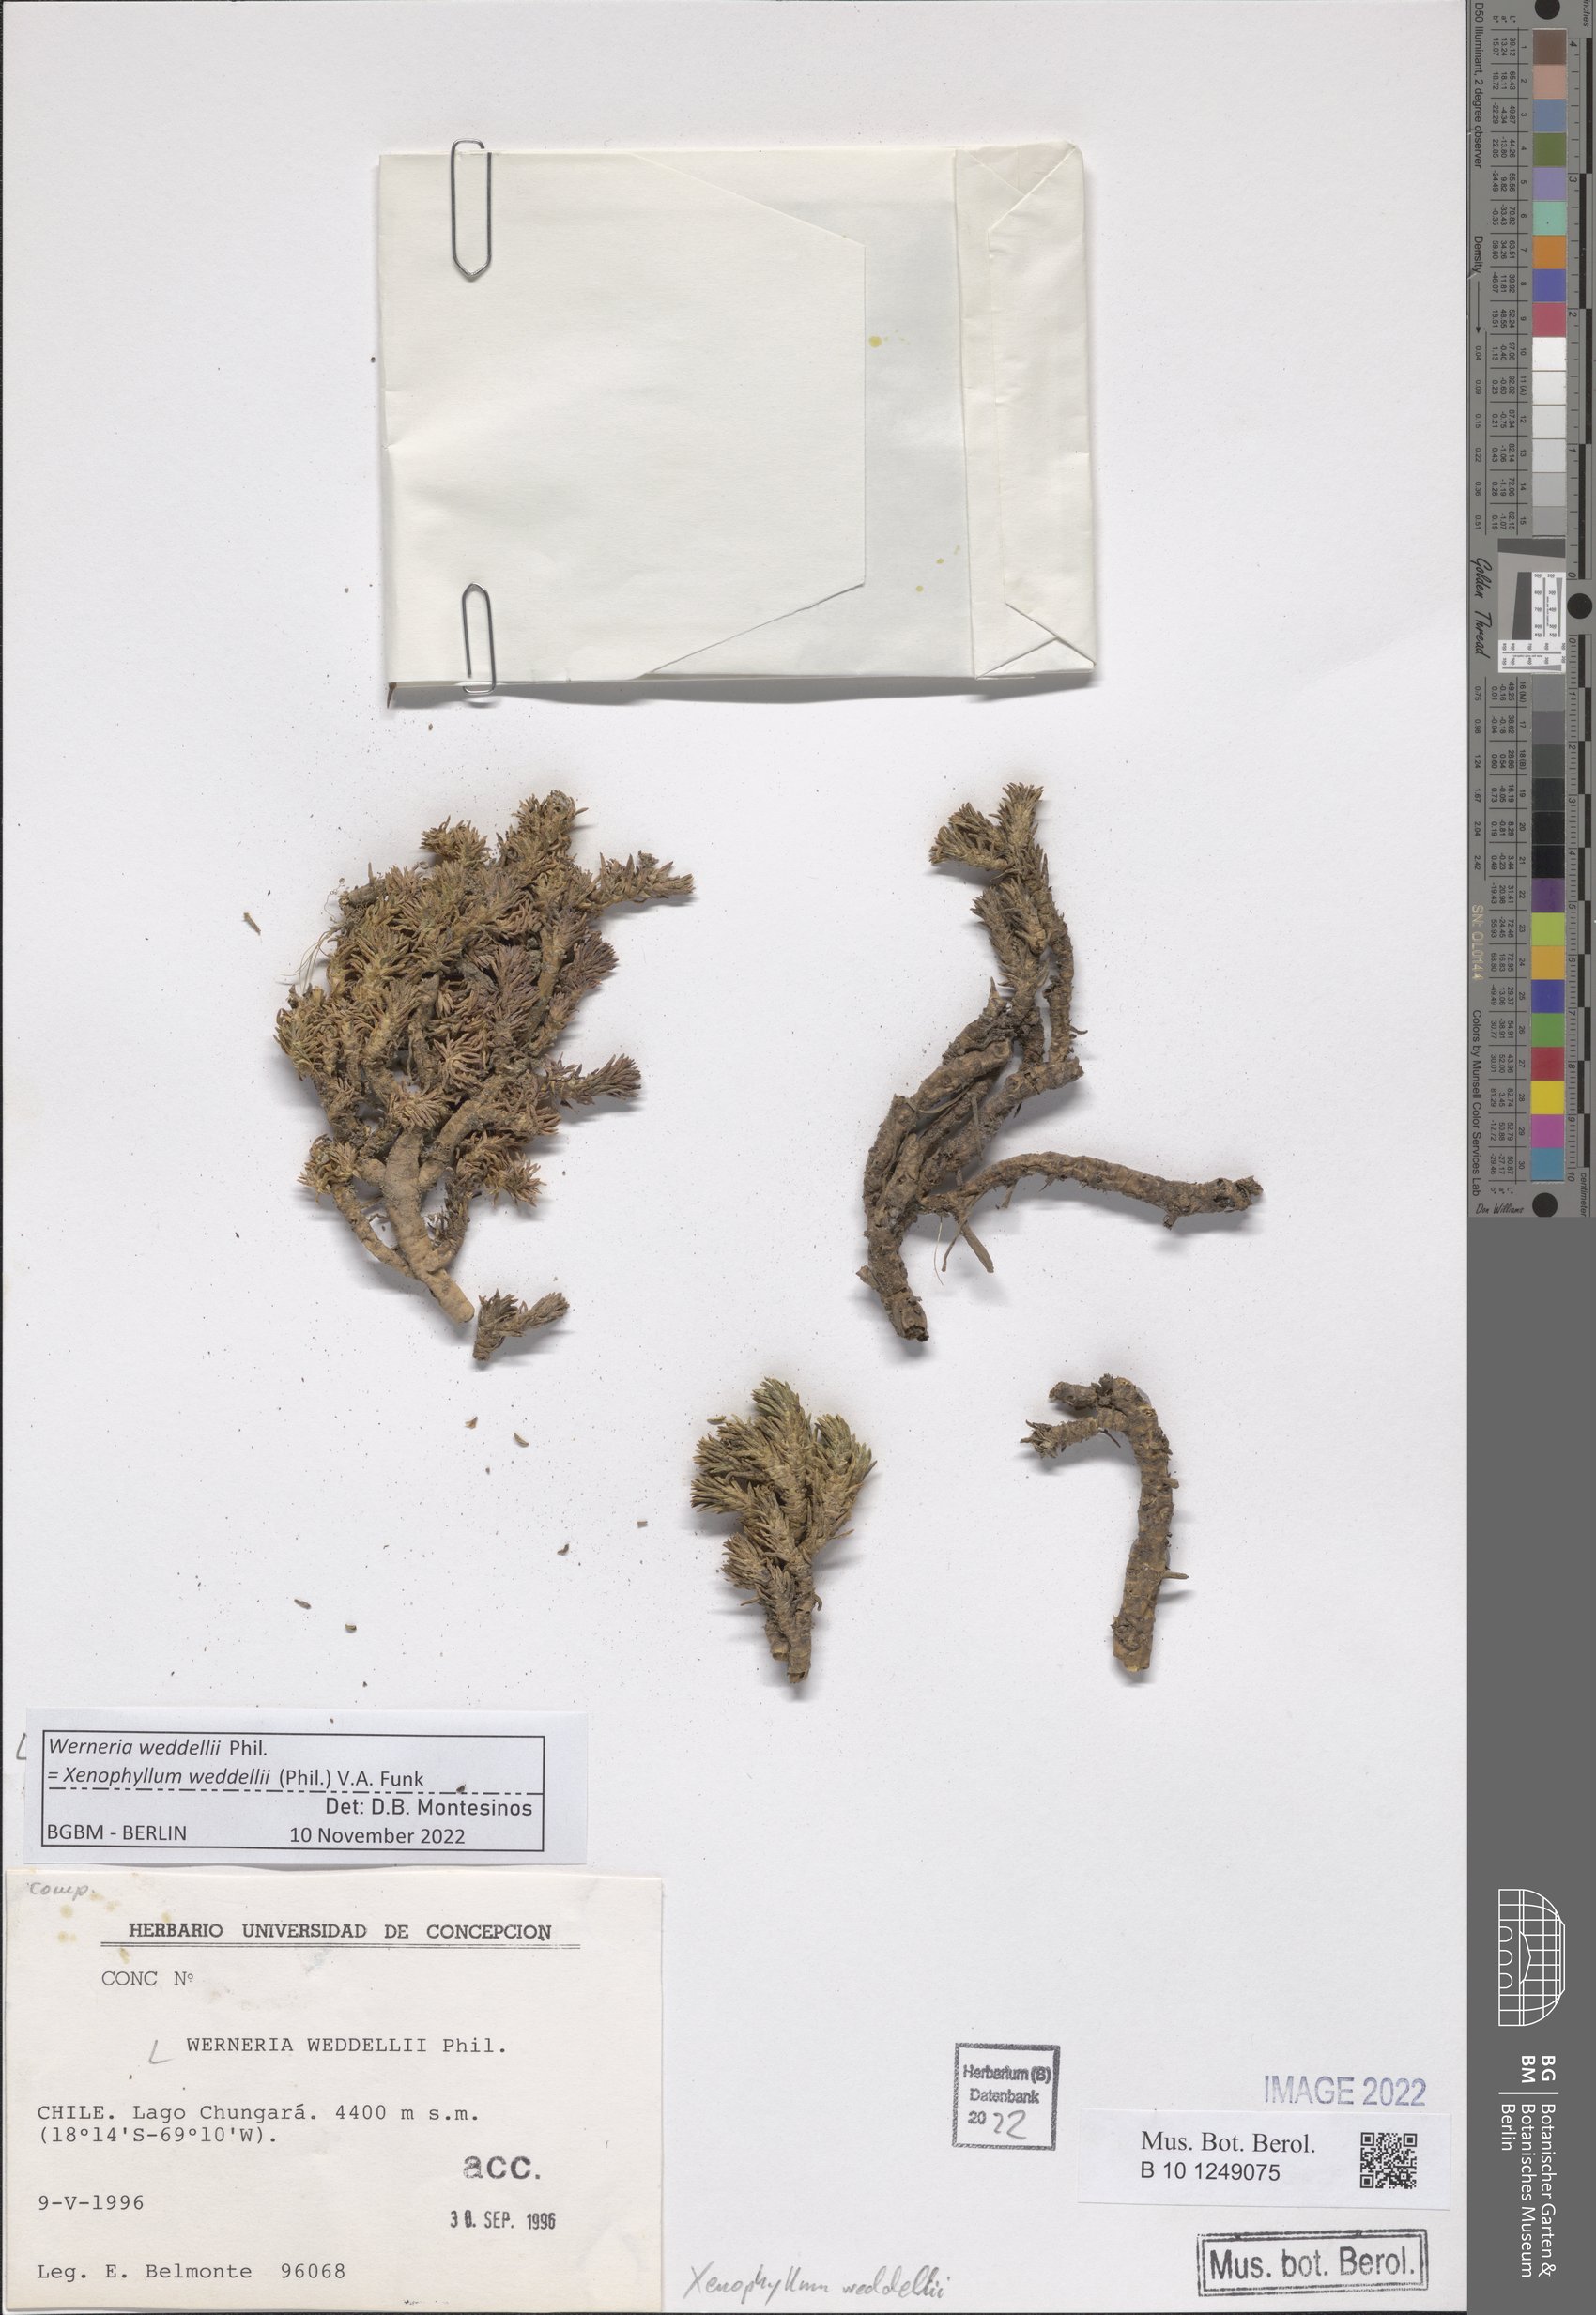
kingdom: Plantae
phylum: Tracheophyta
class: Magnoliopsida
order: Asterales
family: Asteraceae
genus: Werneria
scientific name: Werneria weddellii
